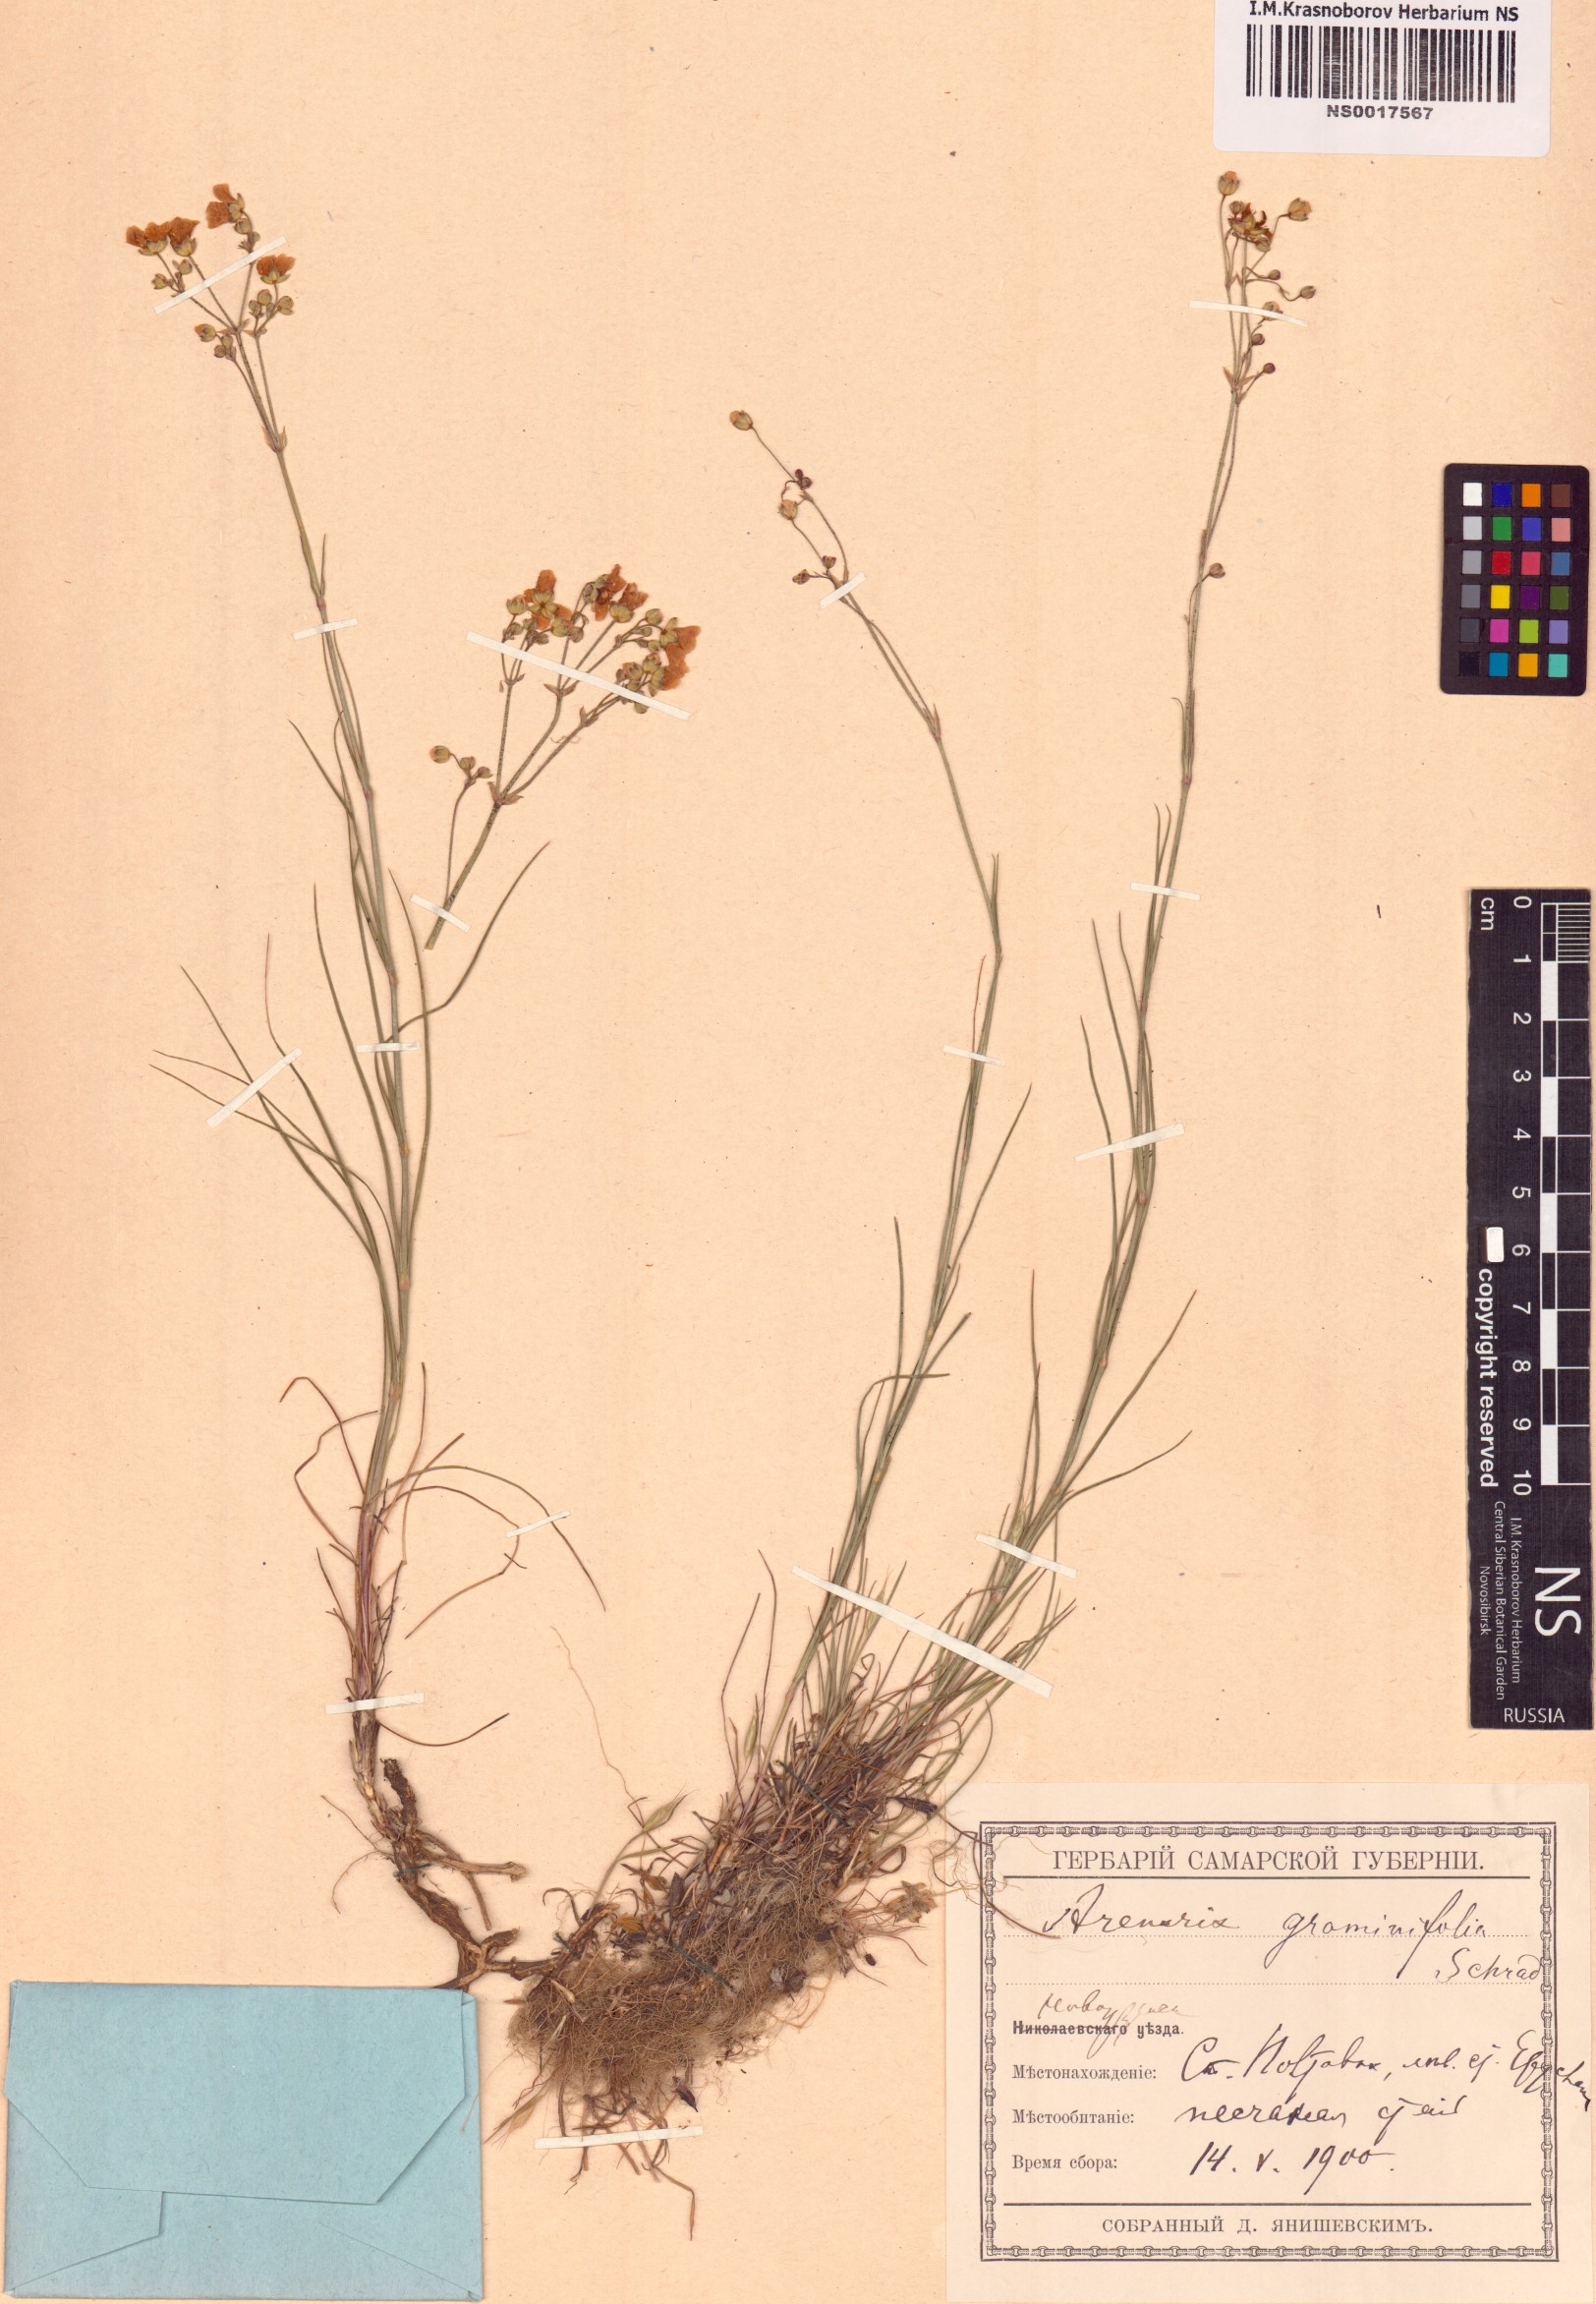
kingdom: Plantae
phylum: Tracheophyta
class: Magnoliopsida
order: Caryophyllales
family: Caryophyllaceae
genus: Eremogone
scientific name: Eremogone saxatilis
